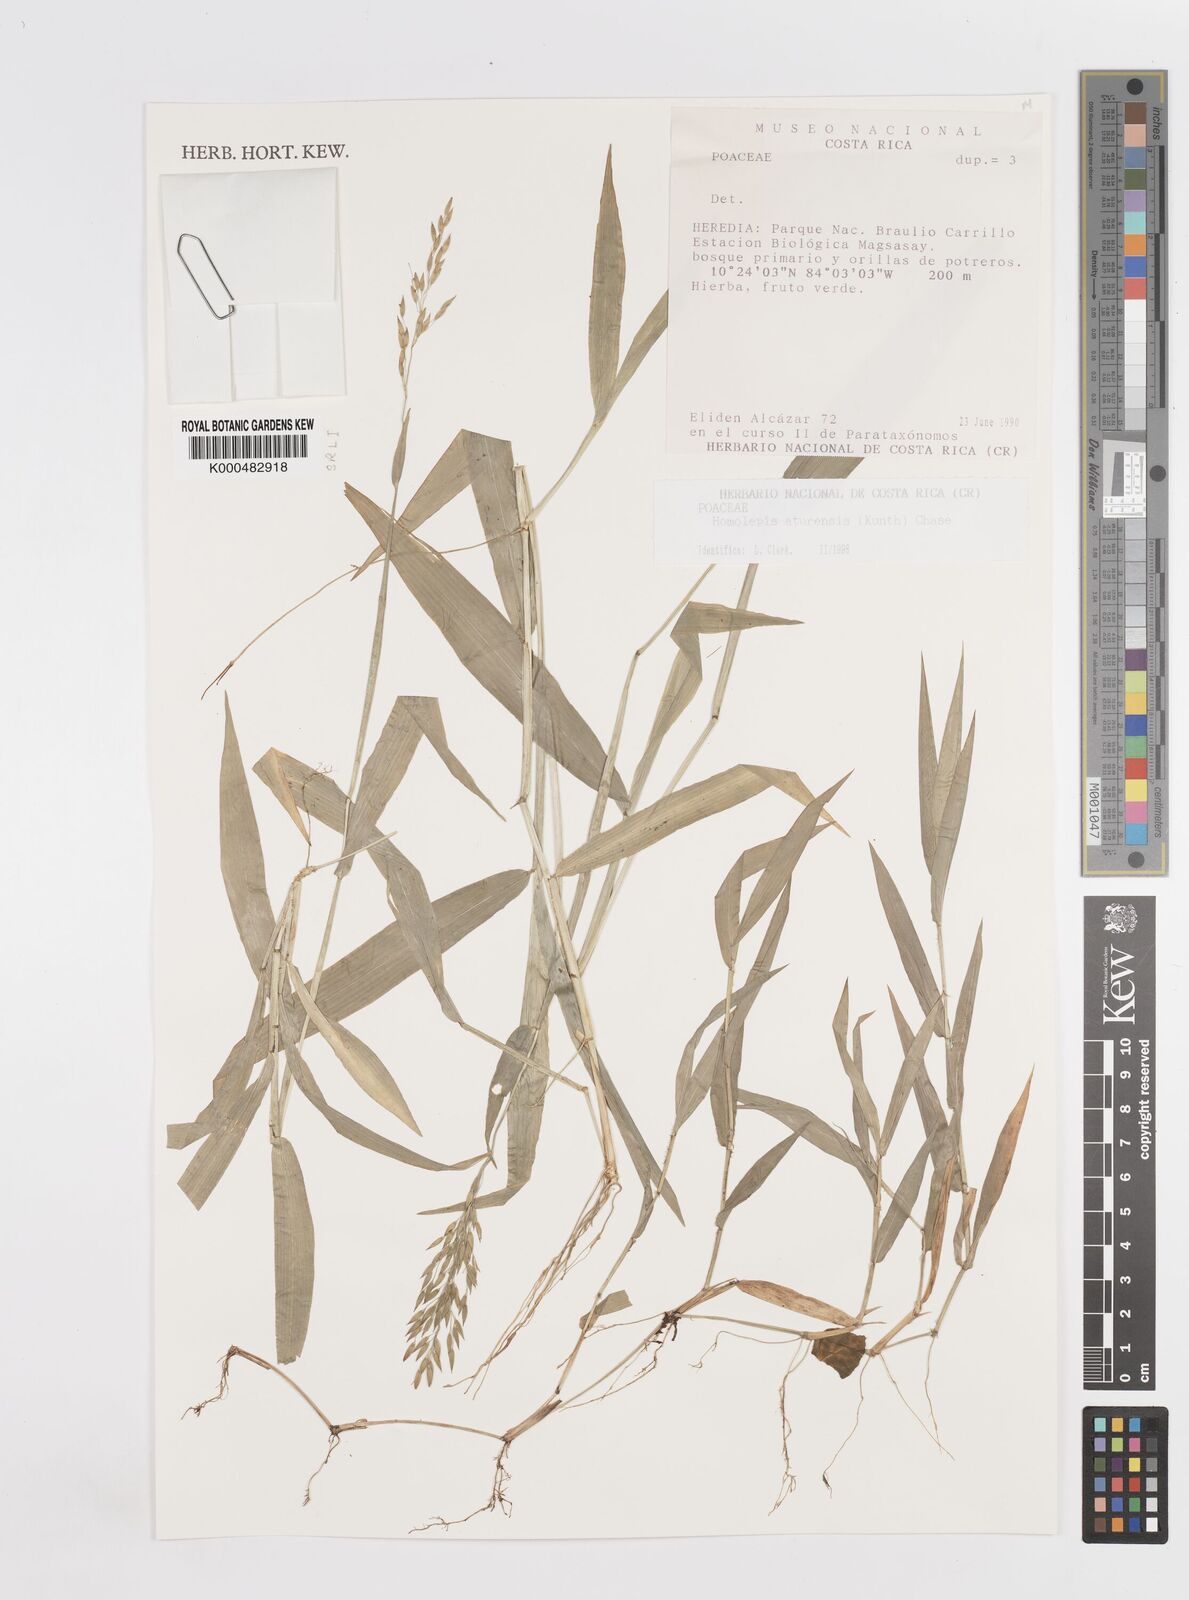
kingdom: Plantae
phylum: Tracheophyta
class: Liliopsida
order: Poales
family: Poaceae
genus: Homolepis
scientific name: Homolepis aturensis
